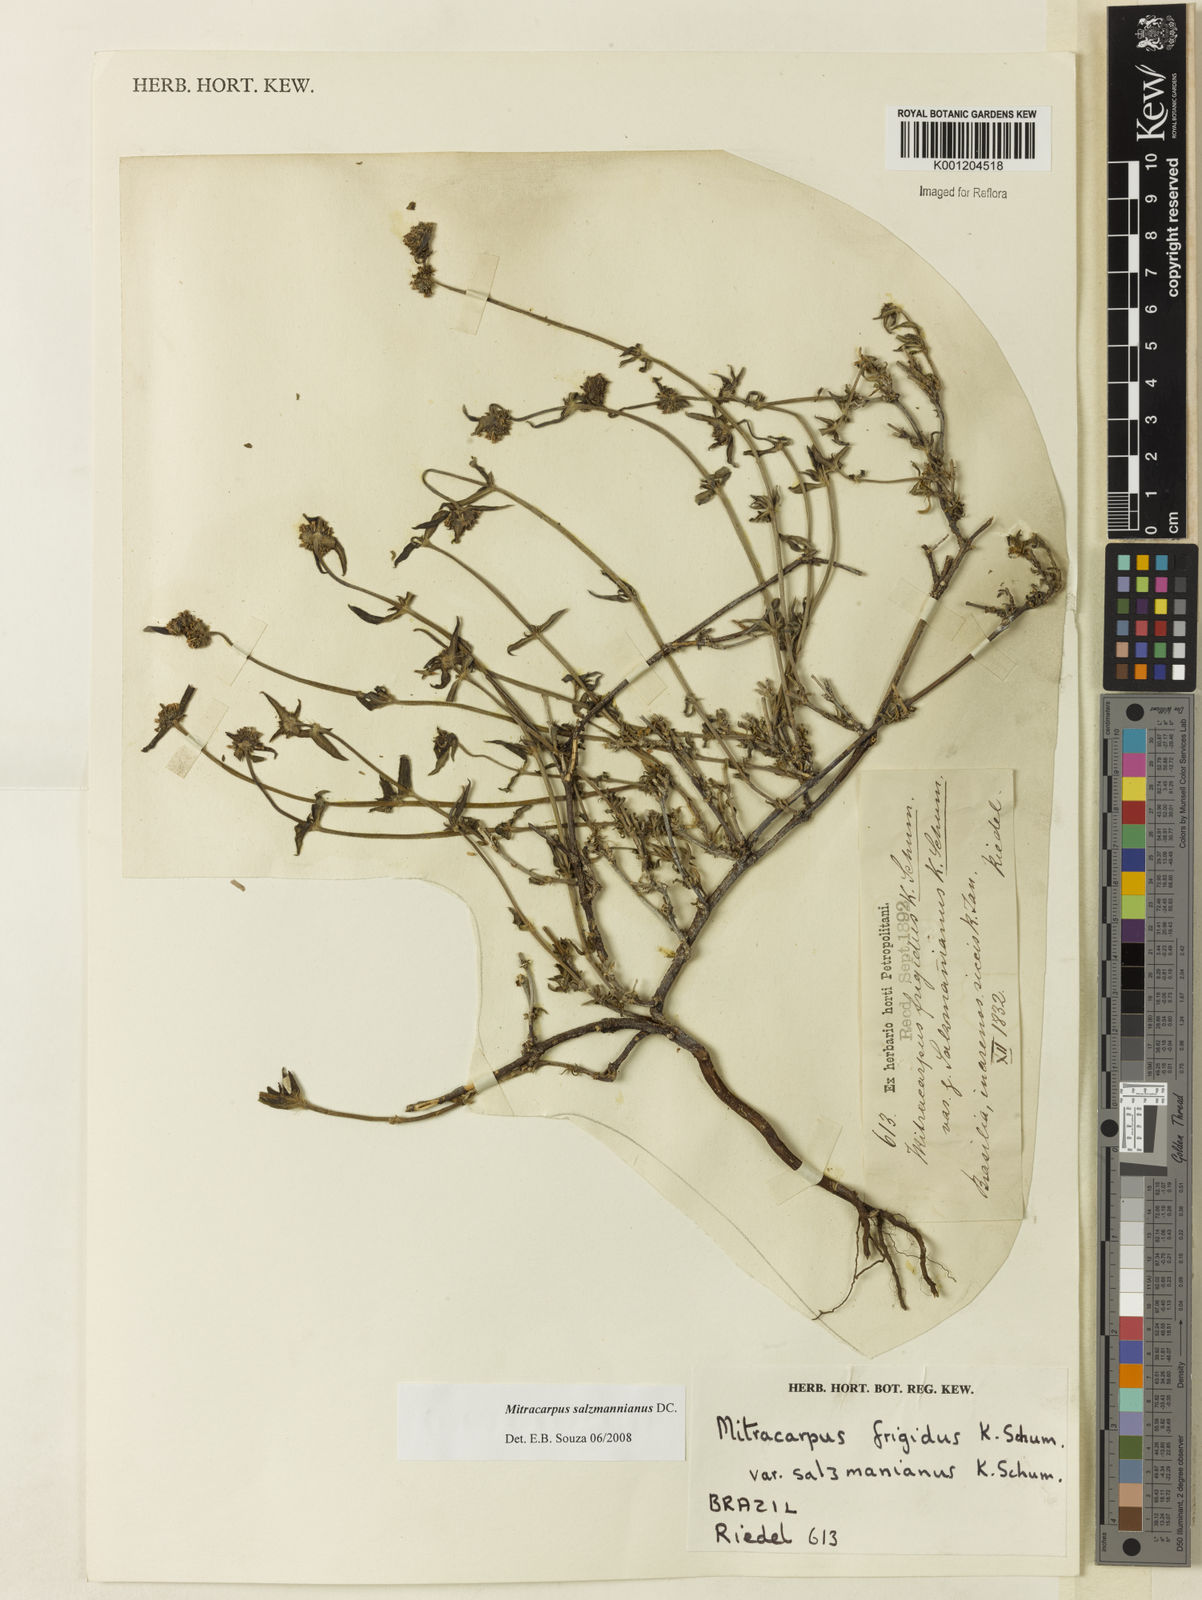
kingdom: Plantae
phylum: Tracheophyta
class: Magnoliopsida
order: Gentianales
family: Rubiaceae
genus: Mitracarpus
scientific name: Mitracarpus salzmannianus
